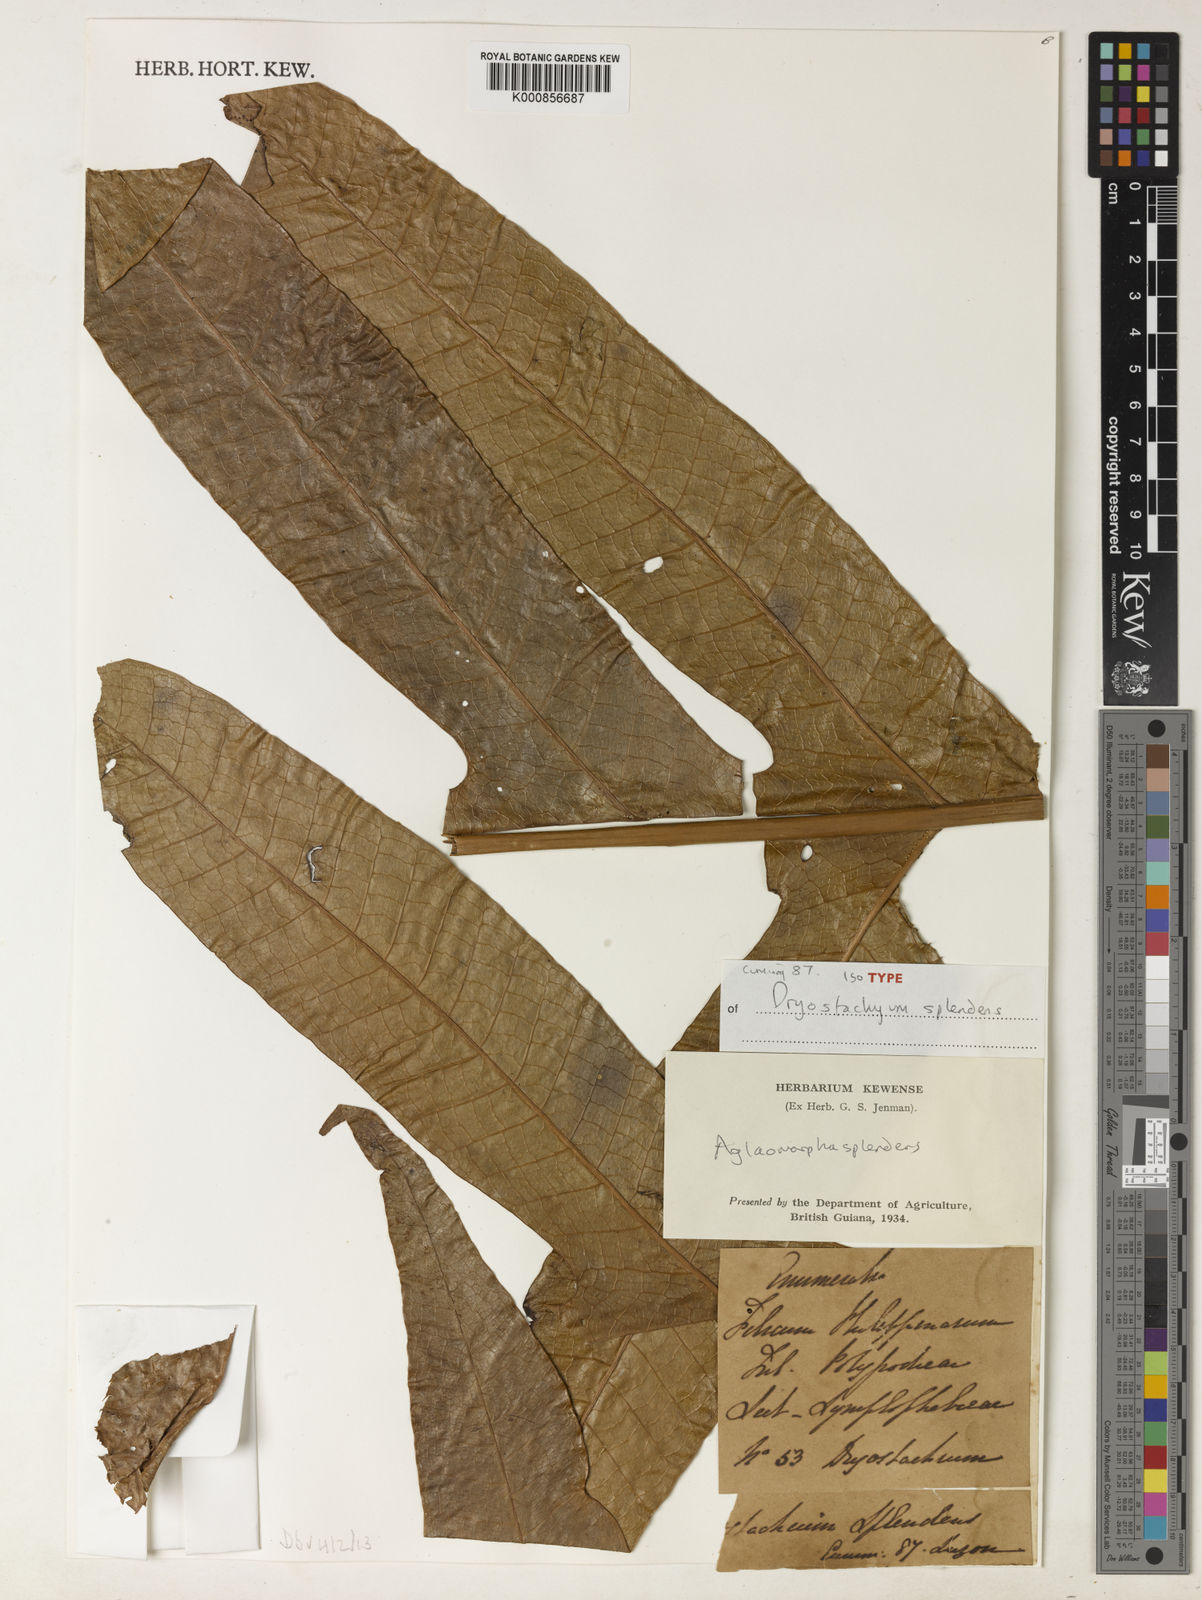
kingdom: Plantae
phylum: Tracheophyta
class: Polypodiopsida
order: Polypodiales
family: Polypodiaceae
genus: Drynaria
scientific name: Drynaria splendens
